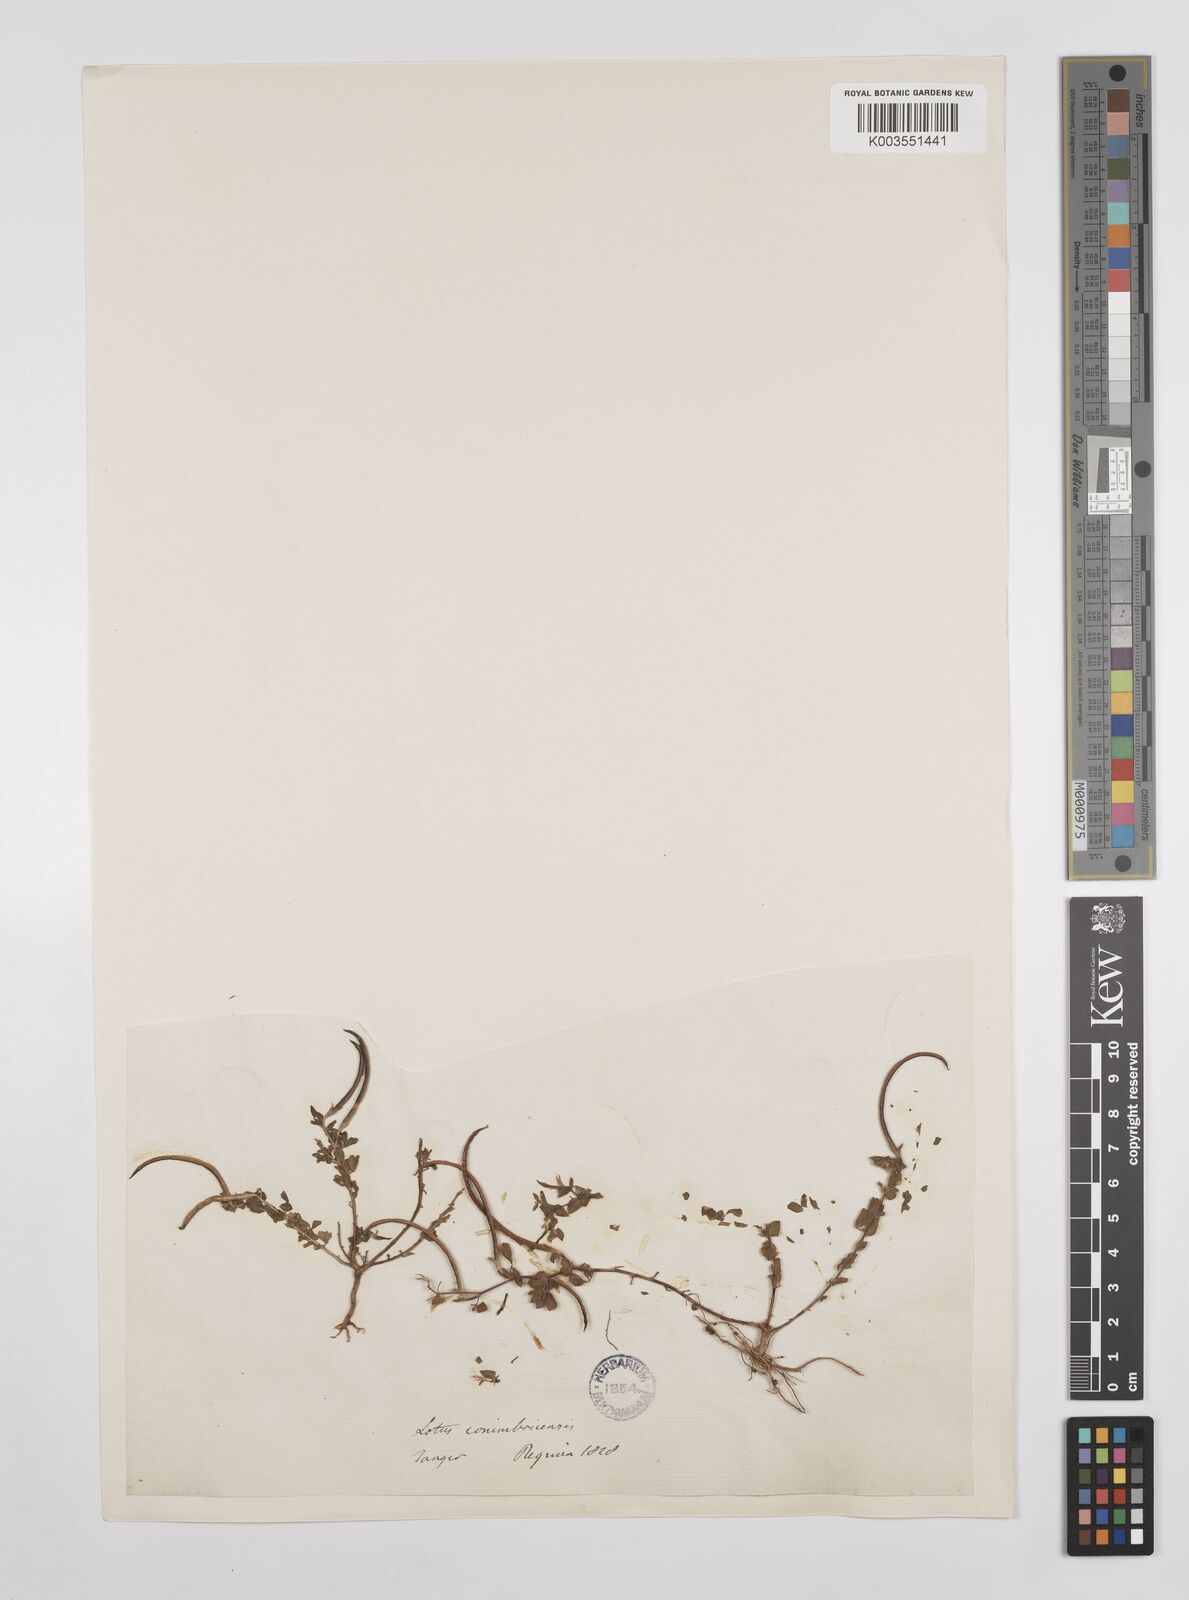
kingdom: Plantae
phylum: Tracheophyta
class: Magnoliopsida
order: Fabales
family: Fabaceae
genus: Lotus
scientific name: Lotus conimbricensis
